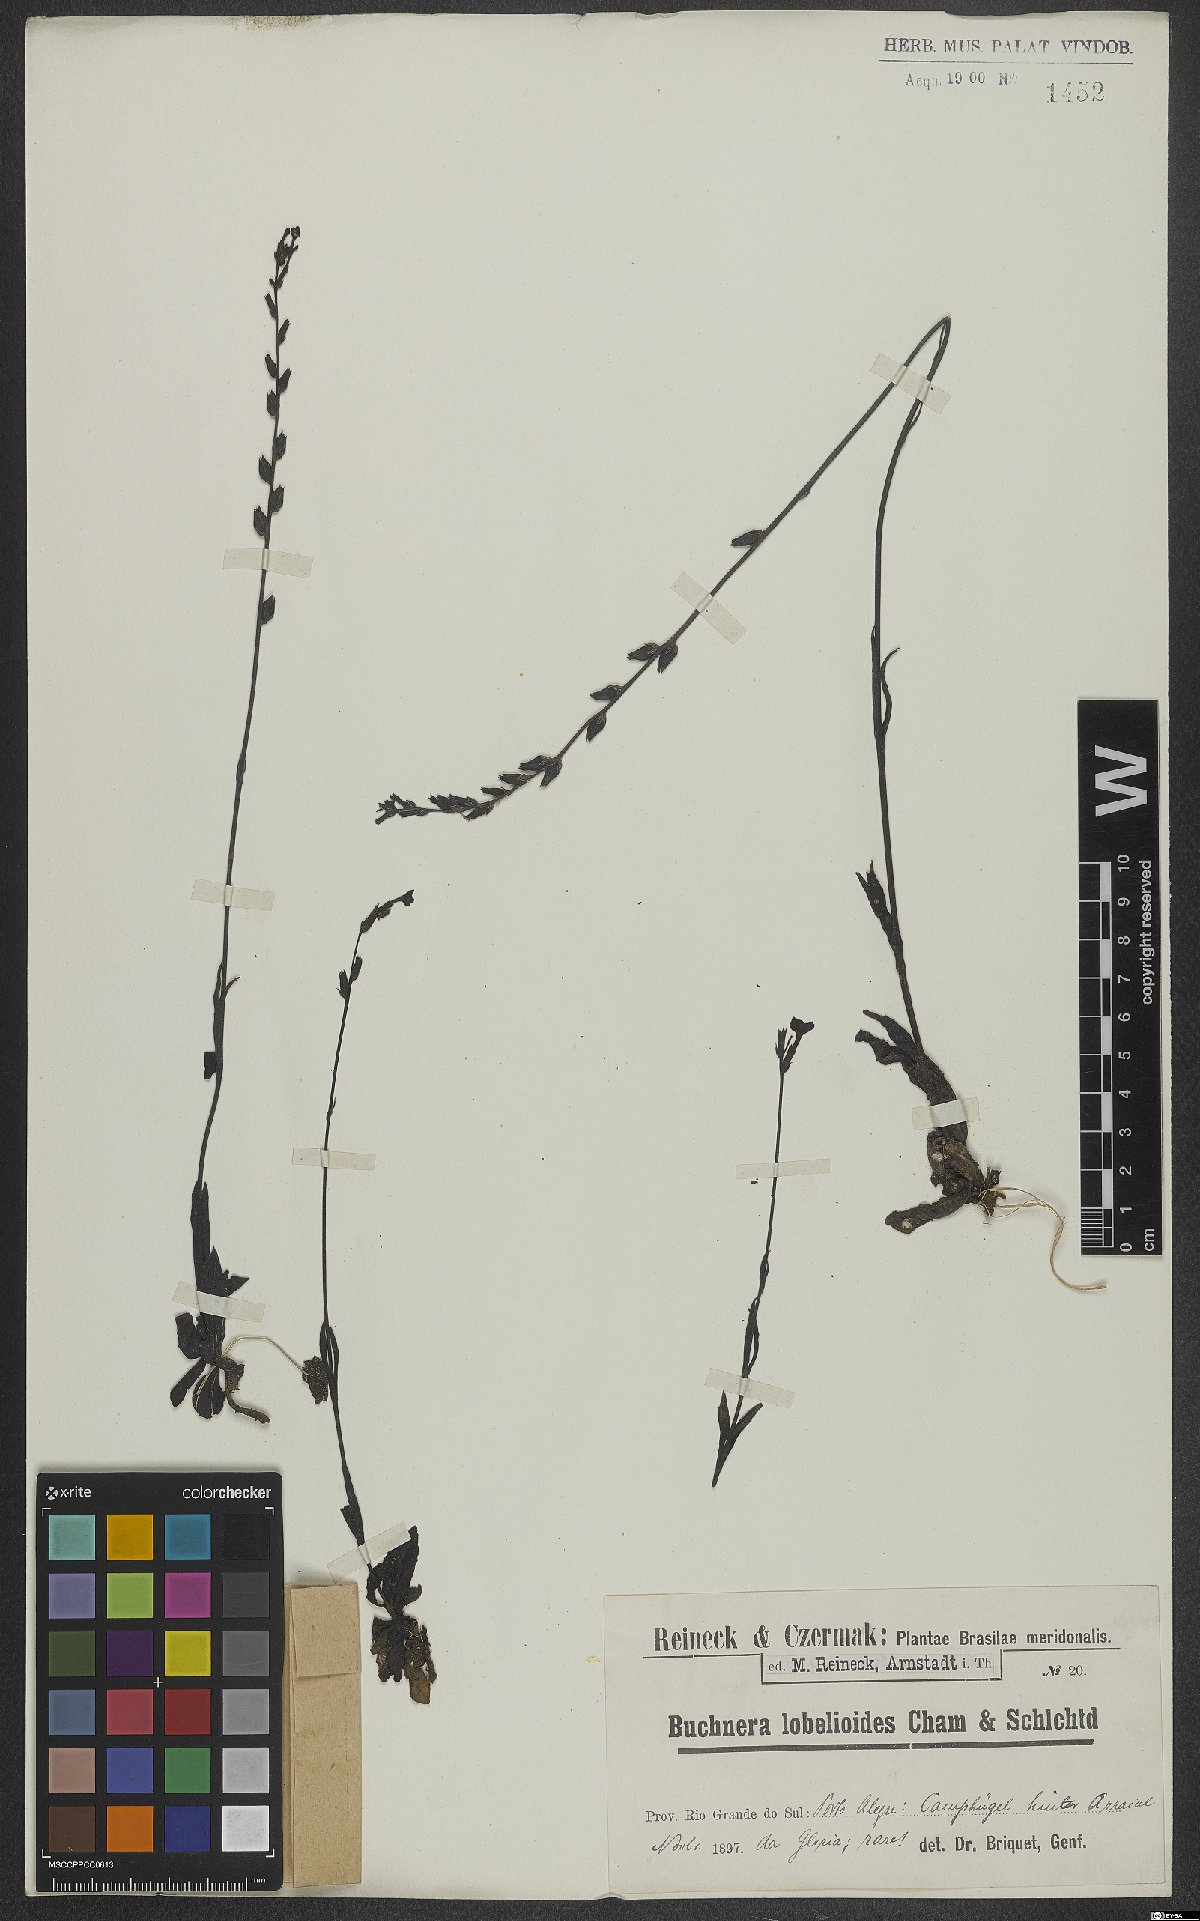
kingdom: Plantae
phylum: Tracheophyta
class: Magnoliopsida
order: Lamiales
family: Orobanchaceae
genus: Buchnera
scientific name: Buchnera ternifolia
